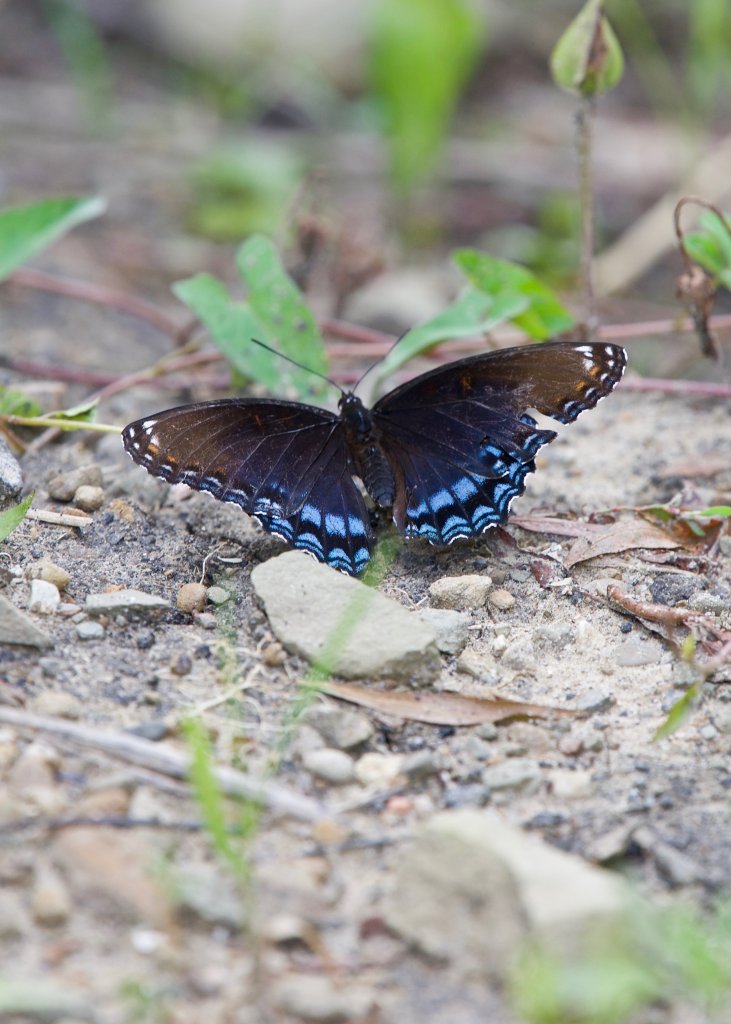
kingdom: Animalia
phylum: Arthropoda
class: Insecta
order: Lepidoptera
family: Nymphalidae
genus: Limenitis
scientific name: Limenitis astyanax
